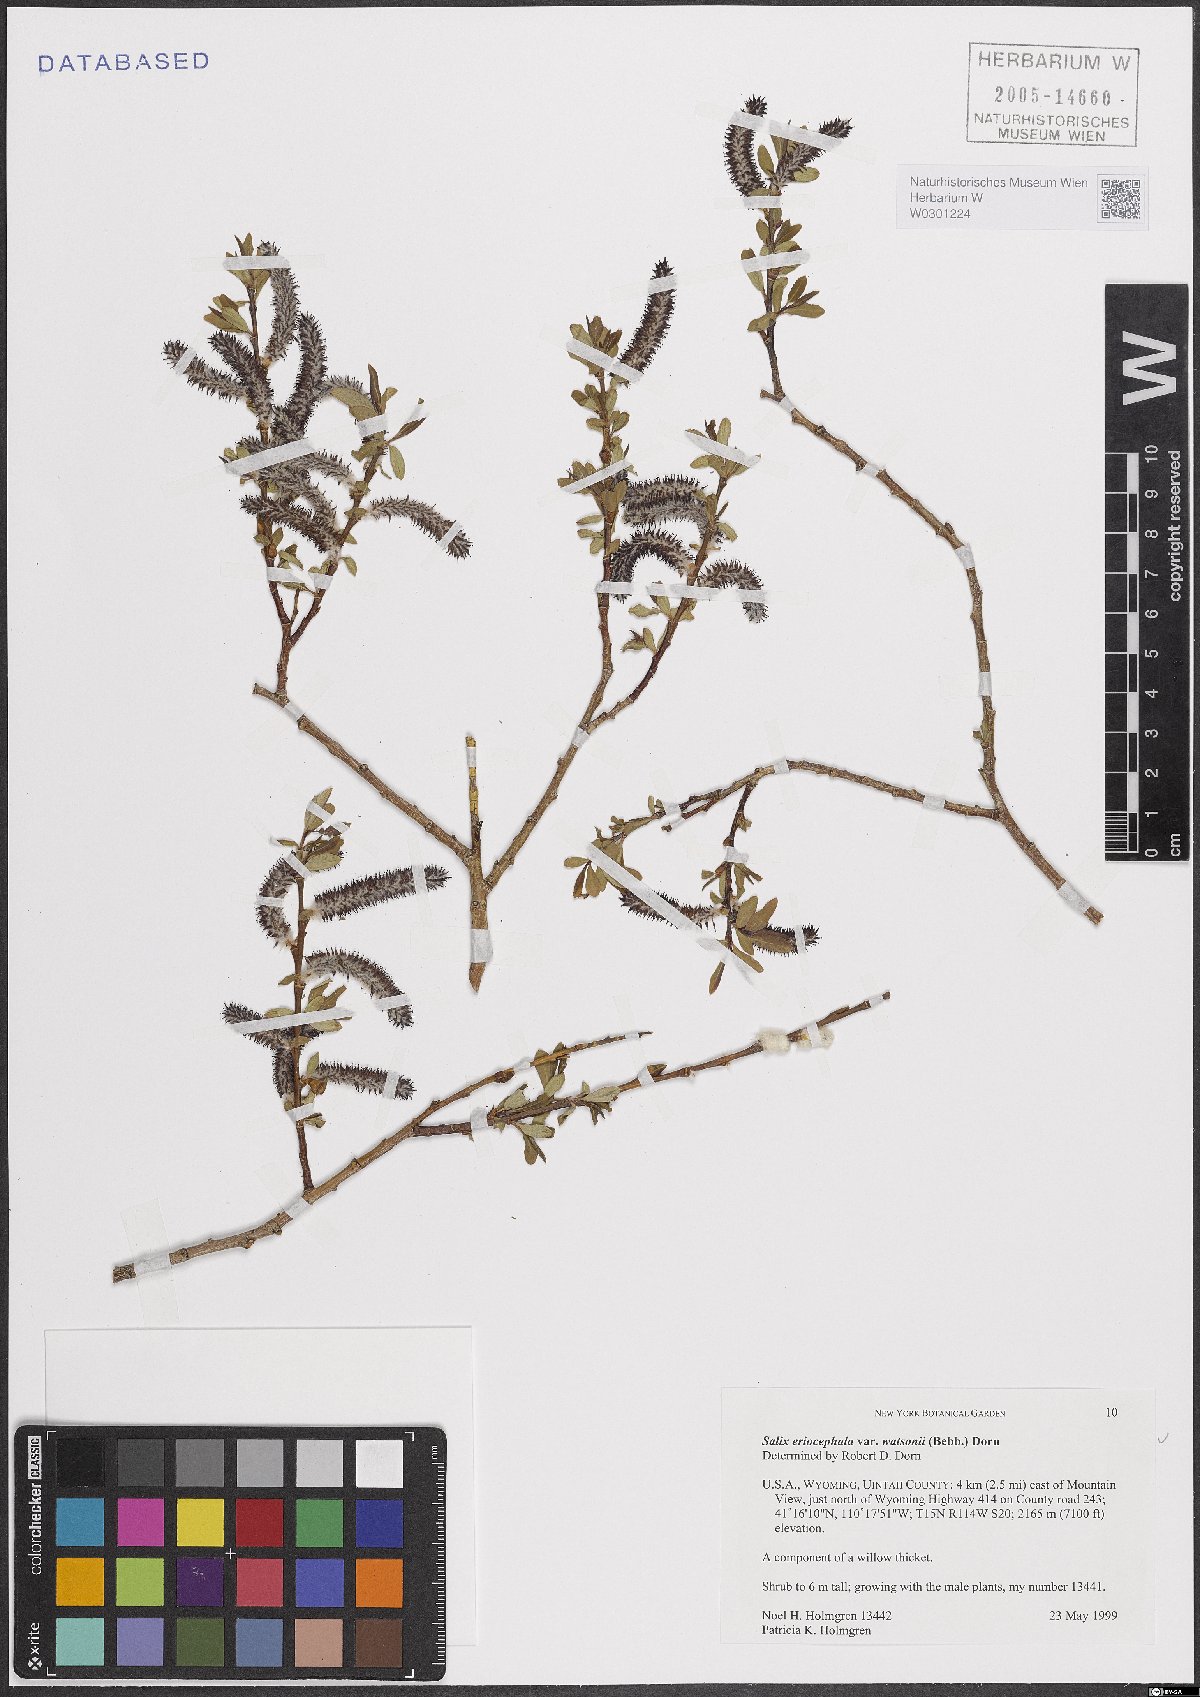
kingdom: Plantae
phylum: Tracheophyta
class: Magnoliopsida
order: Malpighiales
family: Salicaceae
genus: Salix
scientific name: Salix lutea
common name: Yellow willow
